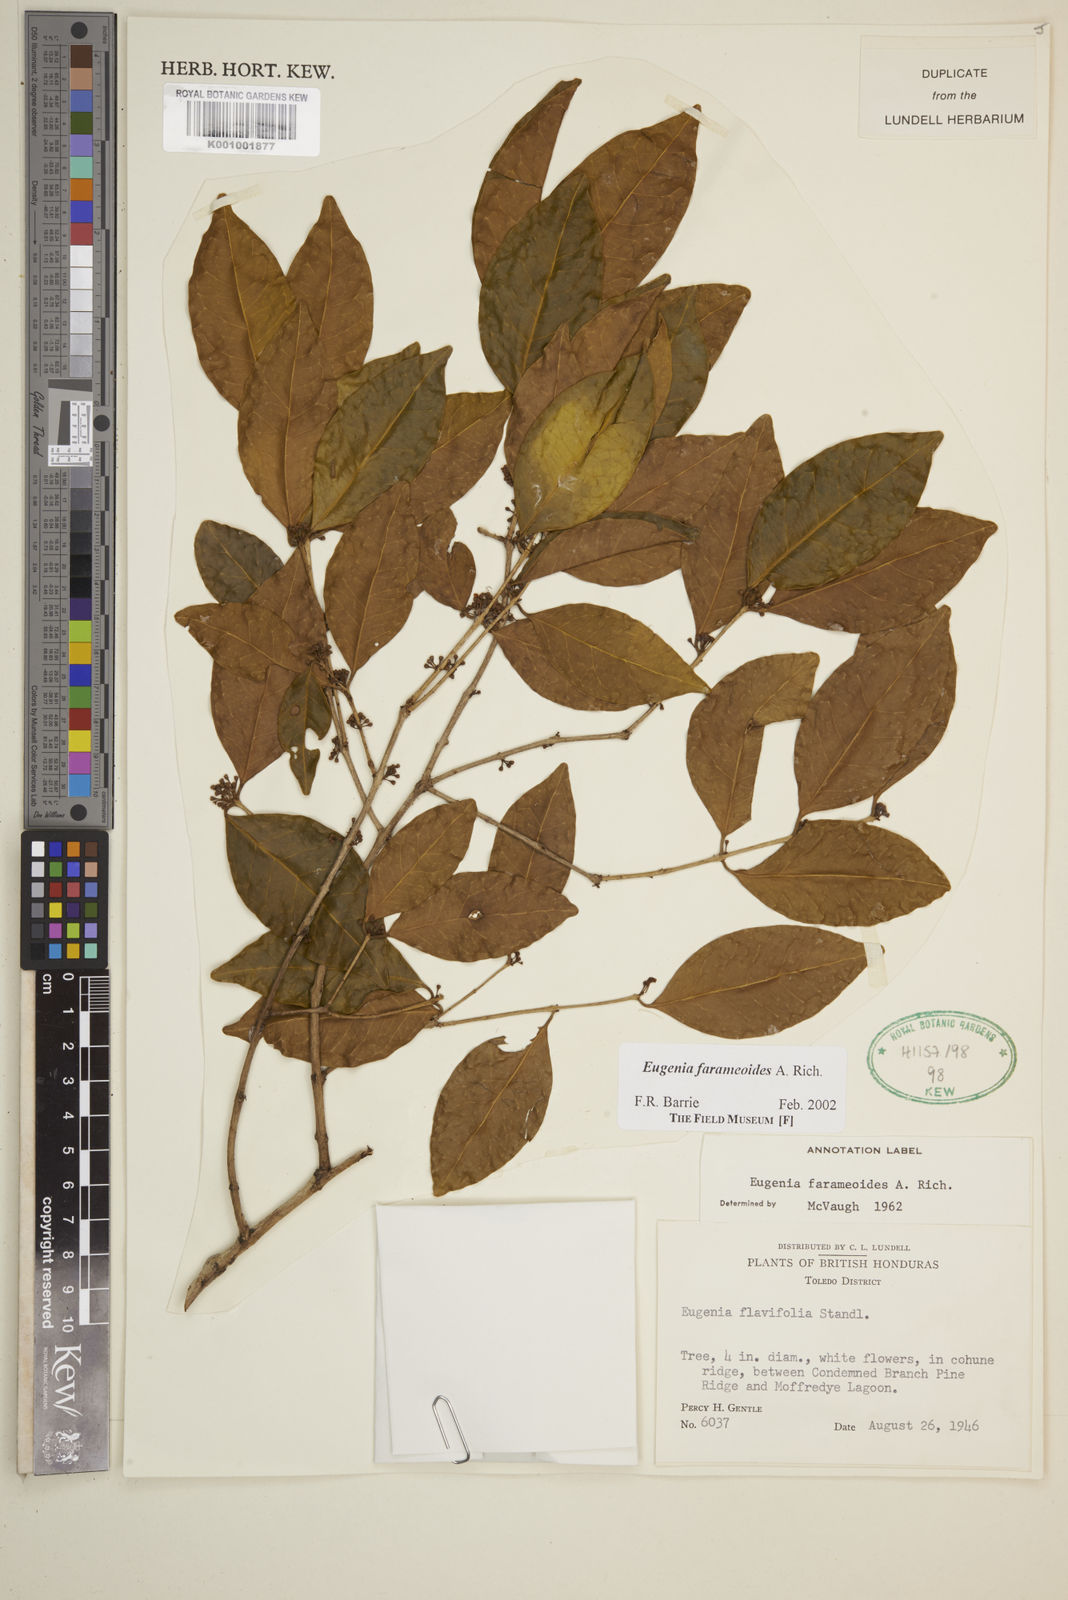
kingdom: Plantae
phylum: Tracheophyta
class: Magnoliopsida
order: Myrtales
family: Myrtaceae
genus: Eugenia
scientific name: Eugenia farameoides
